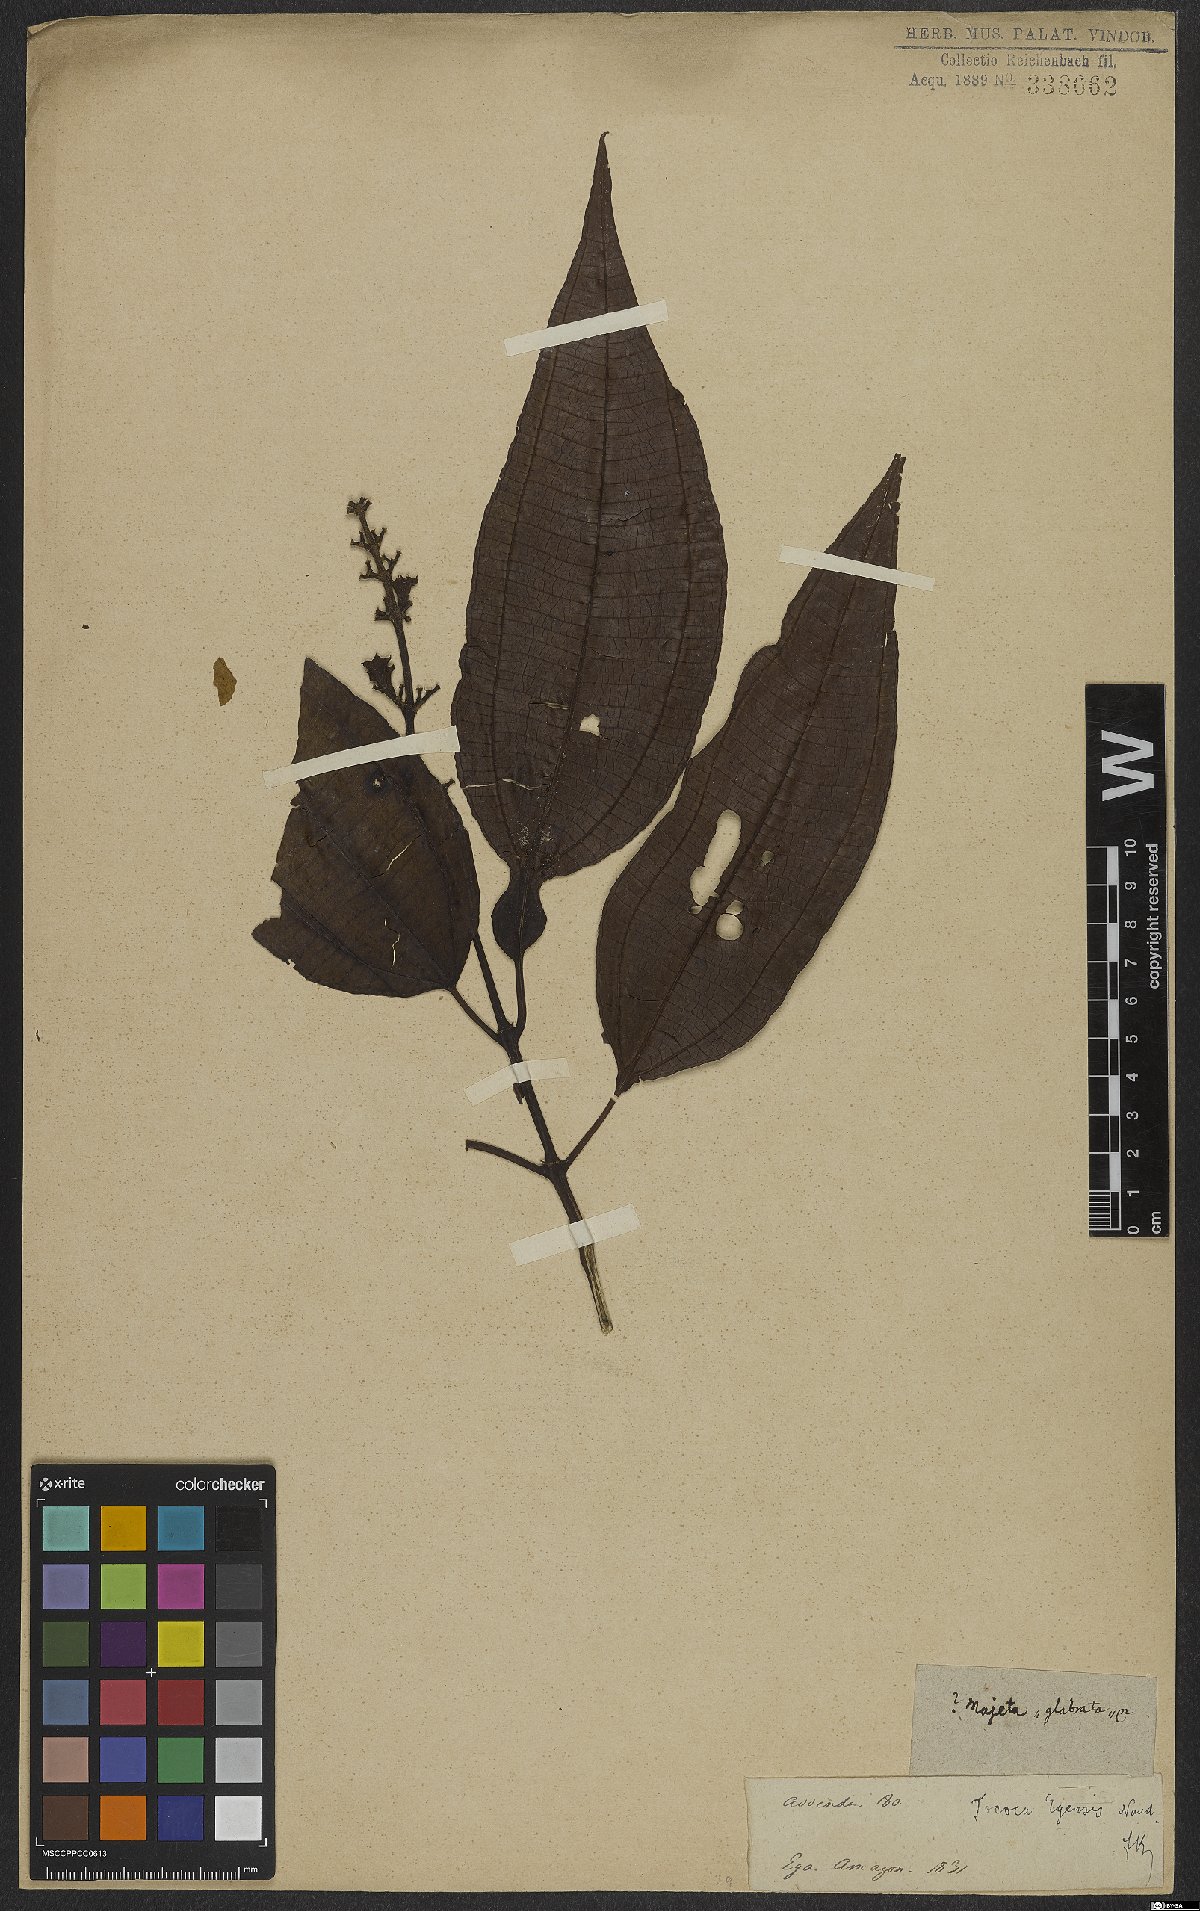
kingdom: Plantae
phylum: Tracheophyta
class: Magnoliopsida
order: Myrtales
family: Melastomataceae
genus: Miconia
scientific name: Miconia tococoronata
